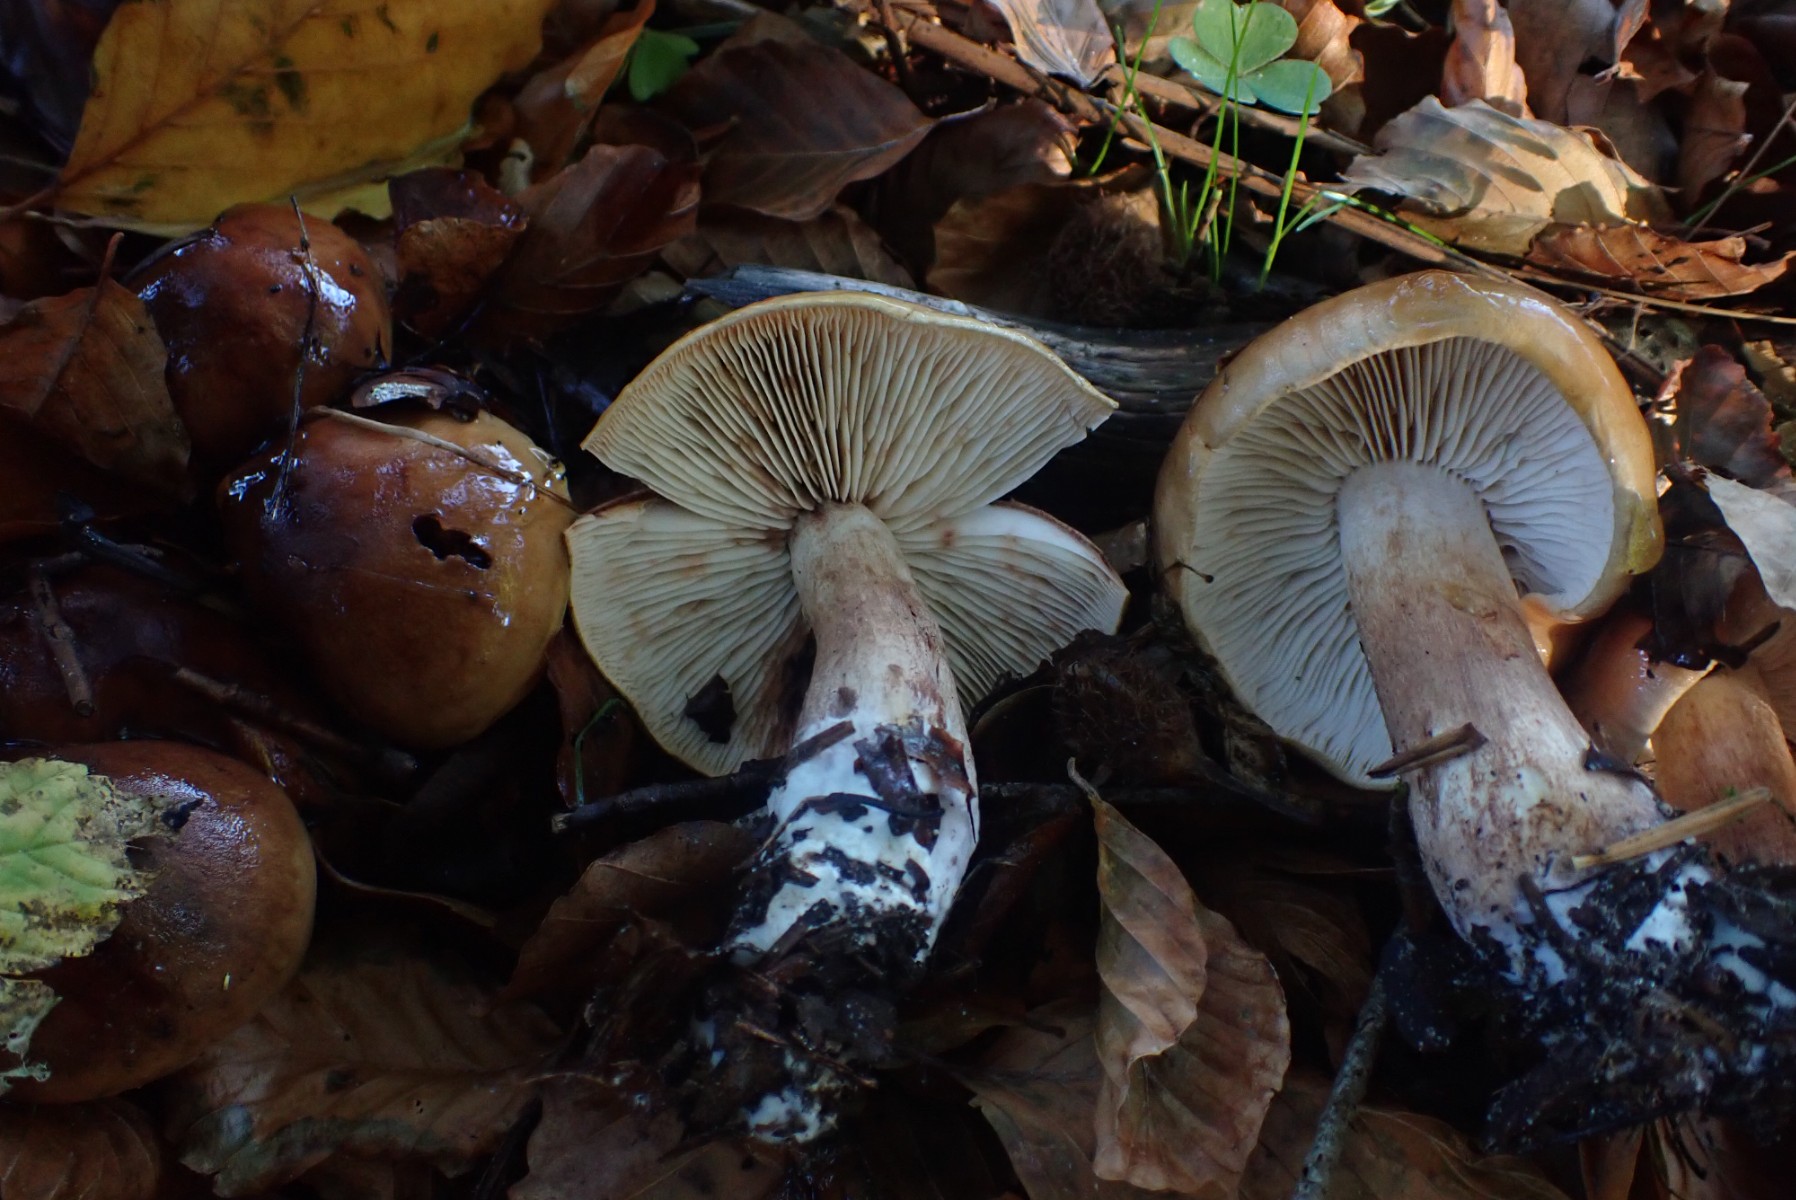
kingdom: Fungi
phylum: Basidiomycota
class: Agaricomycetes
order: Agaricales
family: Tricholomataceae
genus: Tricholoma
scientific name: Tricholoma ustale
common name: sveden ridderhat
